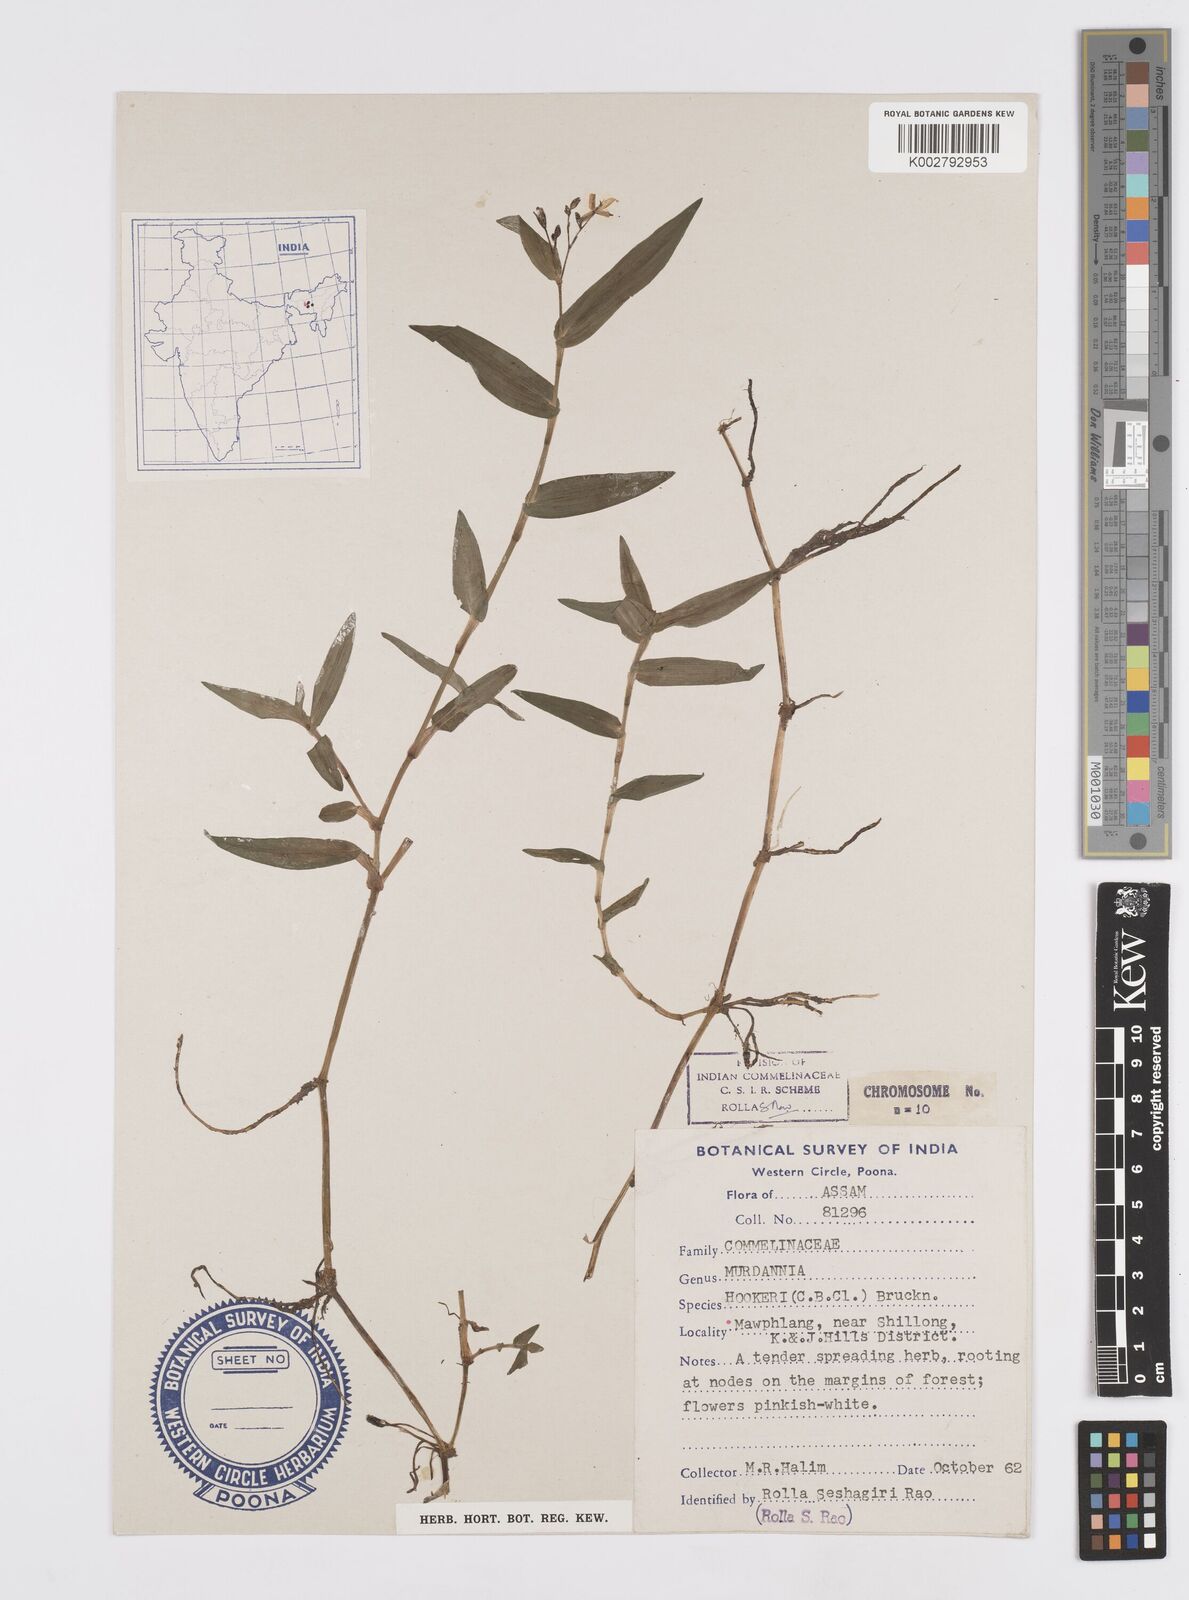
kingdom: Plantae
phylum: Tracheophyta
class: Liliopsida
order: Commelinales
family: Commelinaceae
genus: Murdannia
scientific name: Murdannia hookeri
